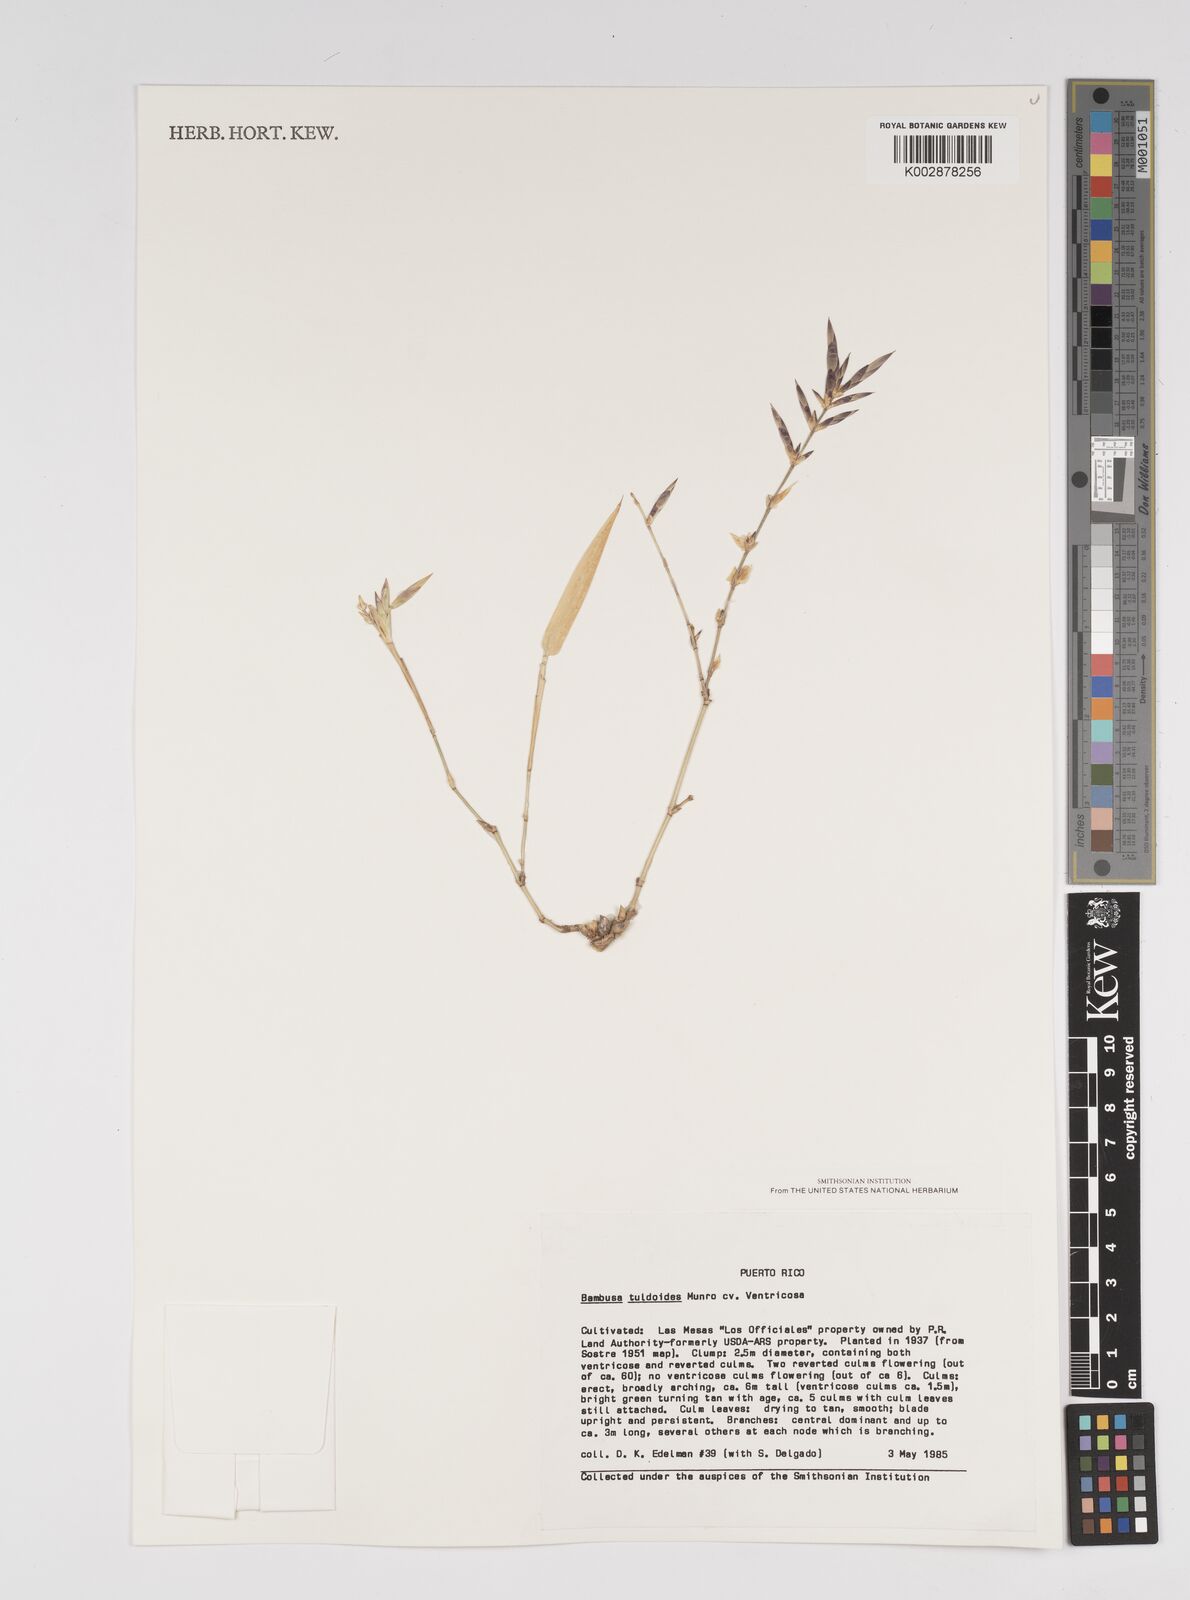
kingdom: Plantae
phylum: Tracheophyta
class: Liliopsida
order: Poales
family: Poaceae
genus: Bambusa
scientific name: Bambusa tuldoides
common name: Verdant bamboo
